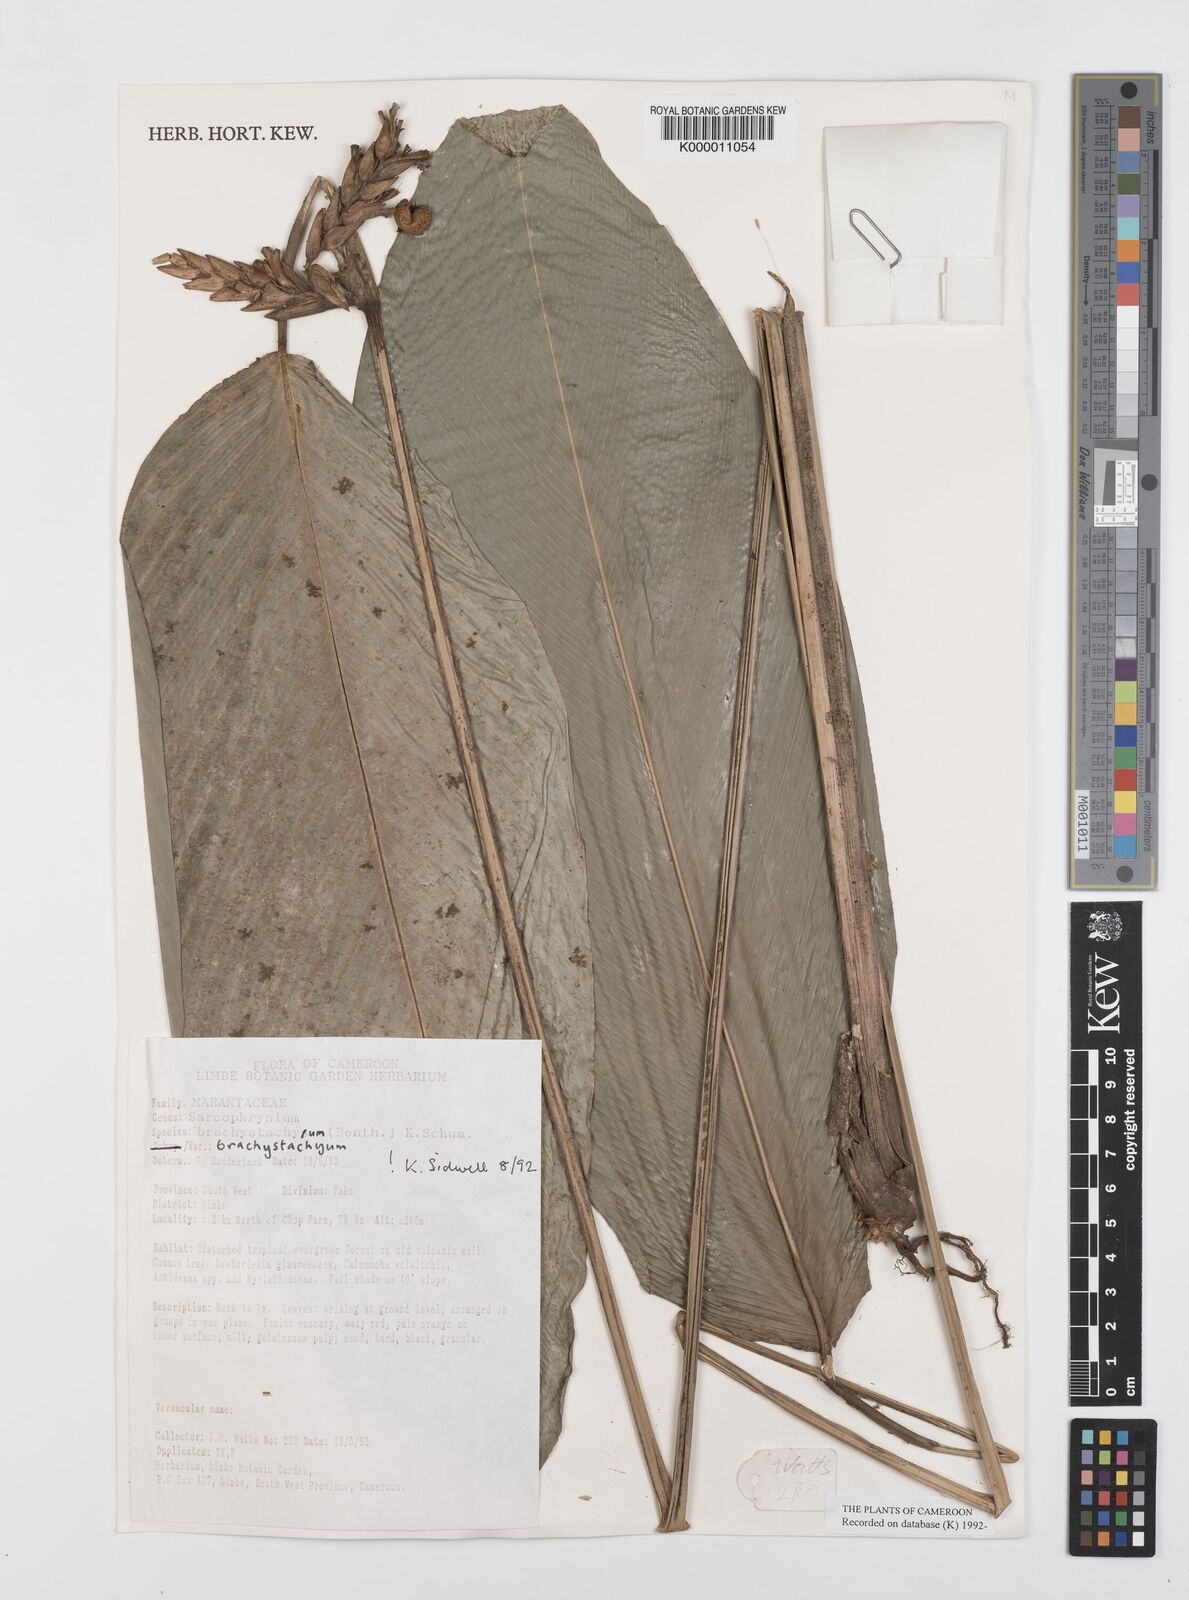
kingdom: Plantae
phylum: Tracheophyta
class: Liliopsida
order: Zingiberales
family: Marantaceae
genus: Sarcophrynium
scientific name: Sarcophrynium
